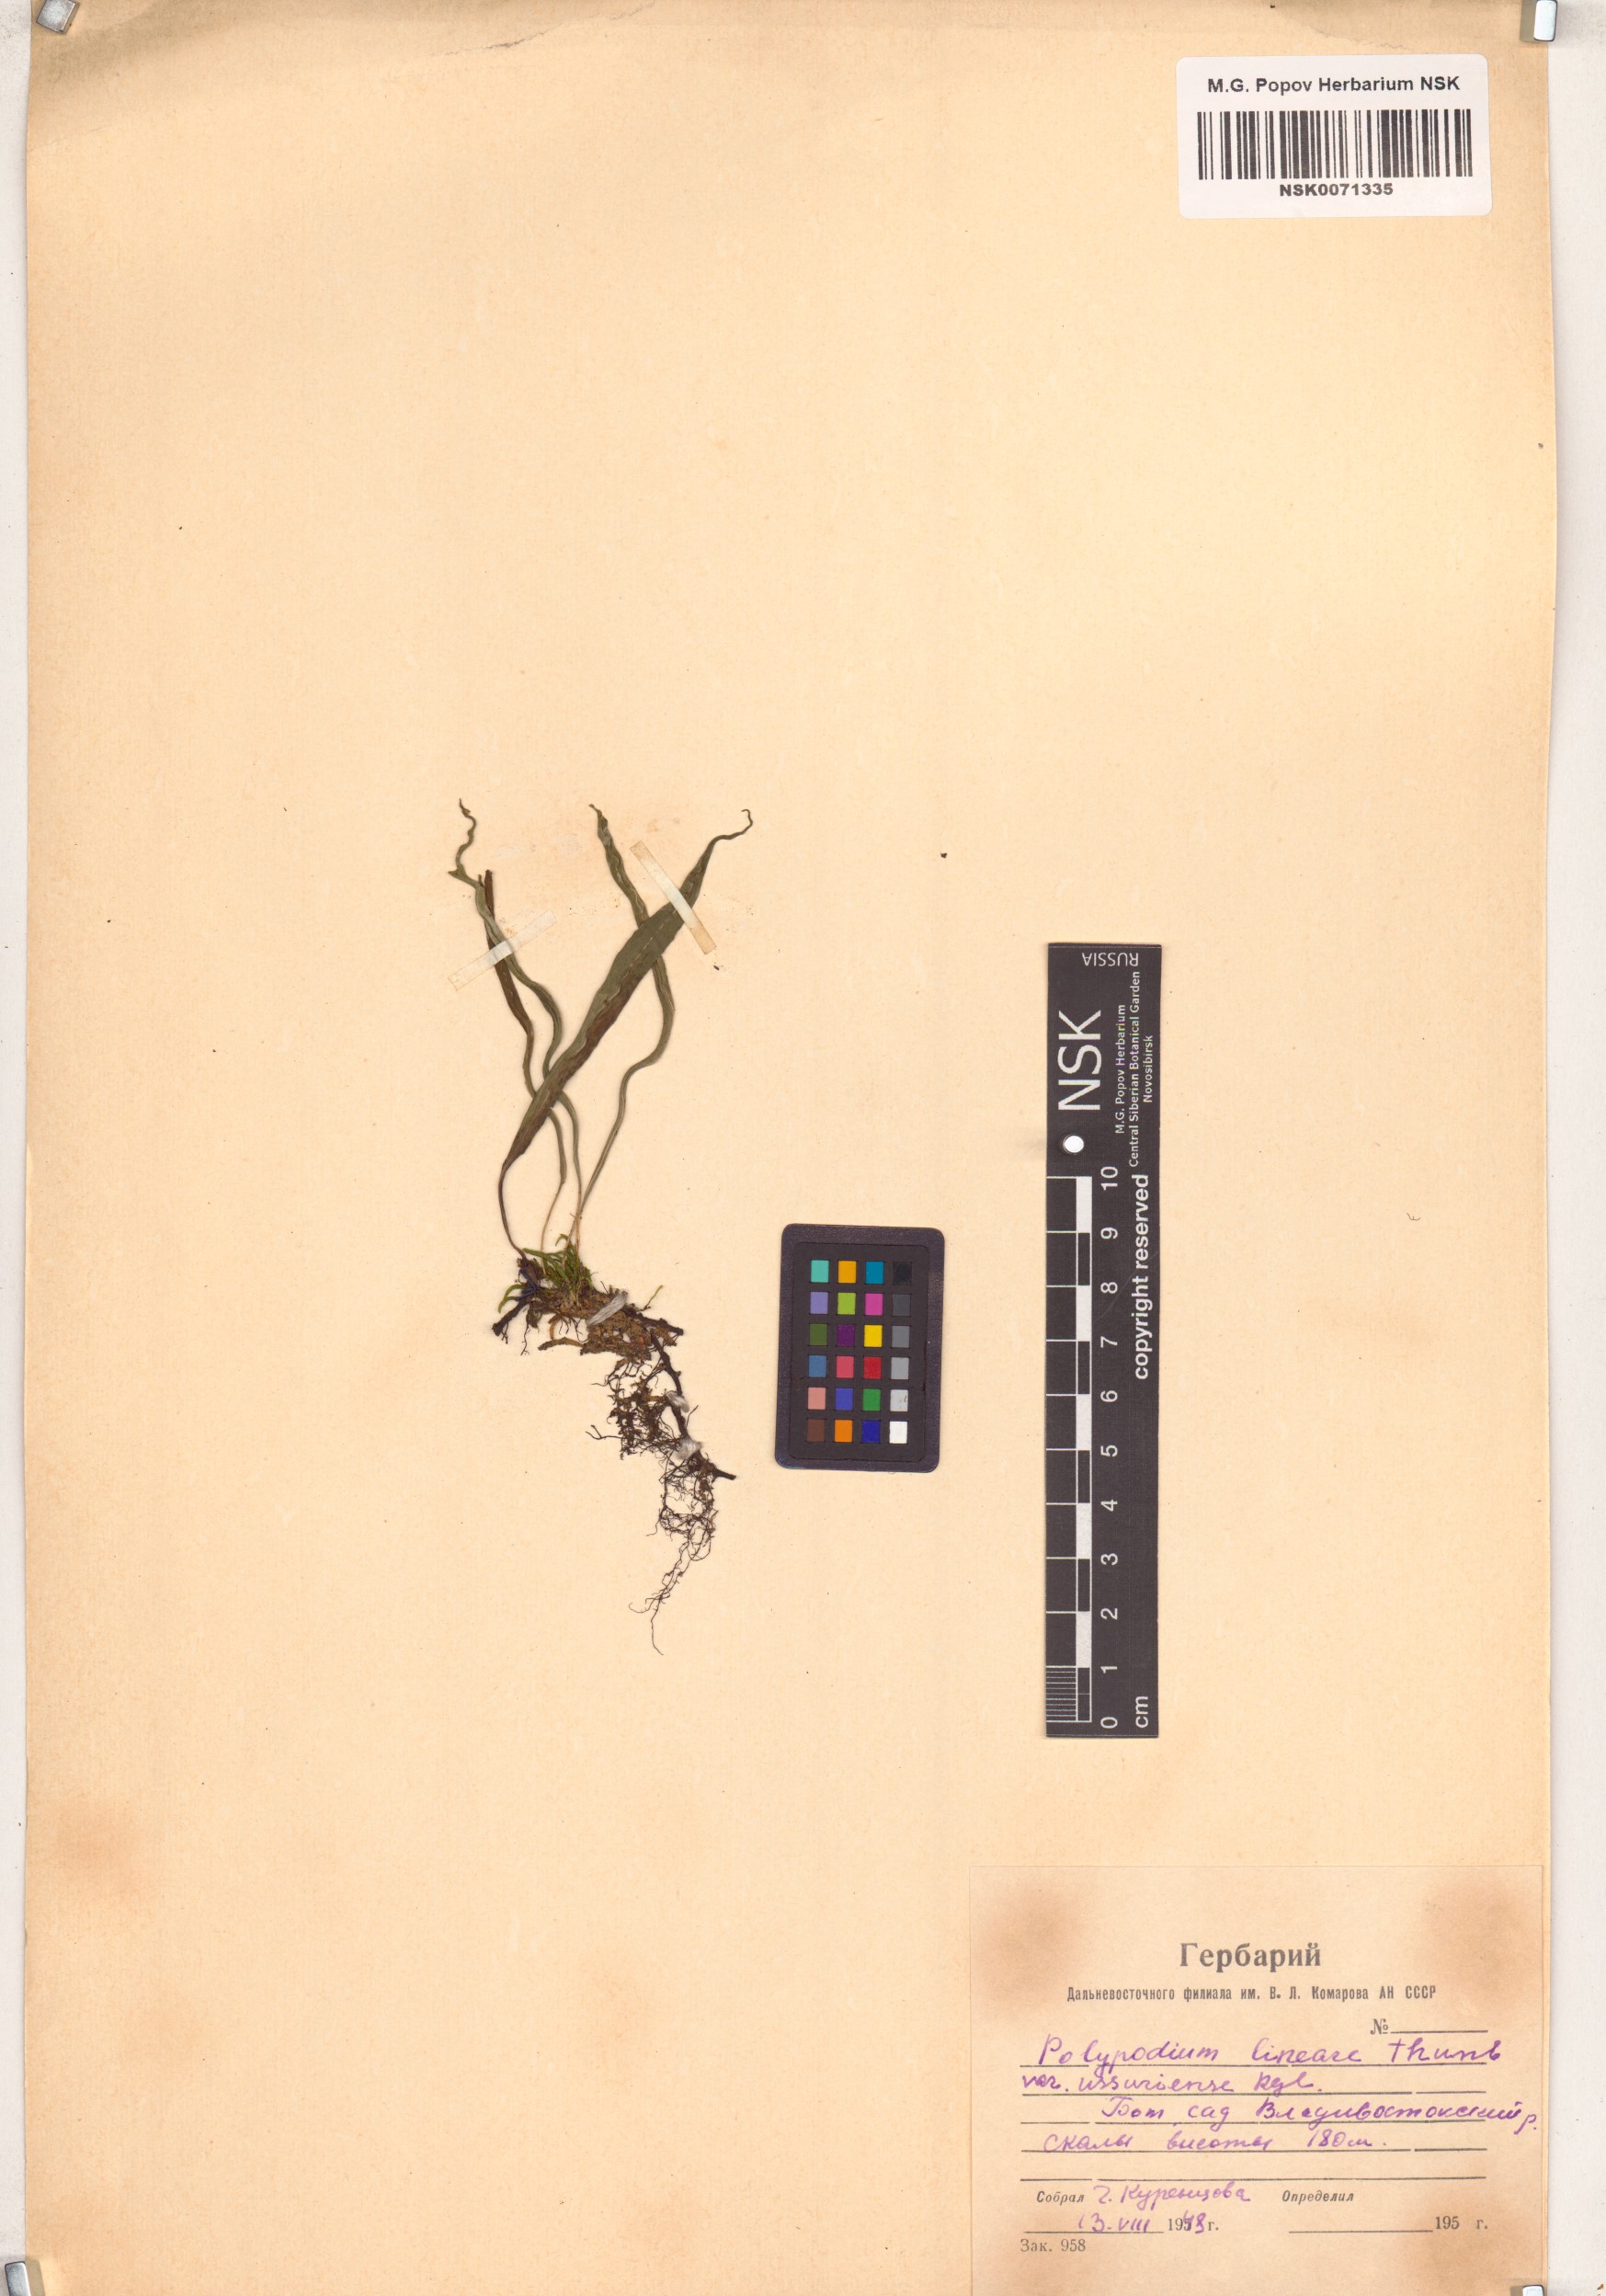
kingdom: Plantae
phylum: Tracheophyta
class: Polypodiopsida
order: Polypodiales
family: Polypodiaceae
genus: Lepisorus
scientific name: Lepisorus ussuriensis
